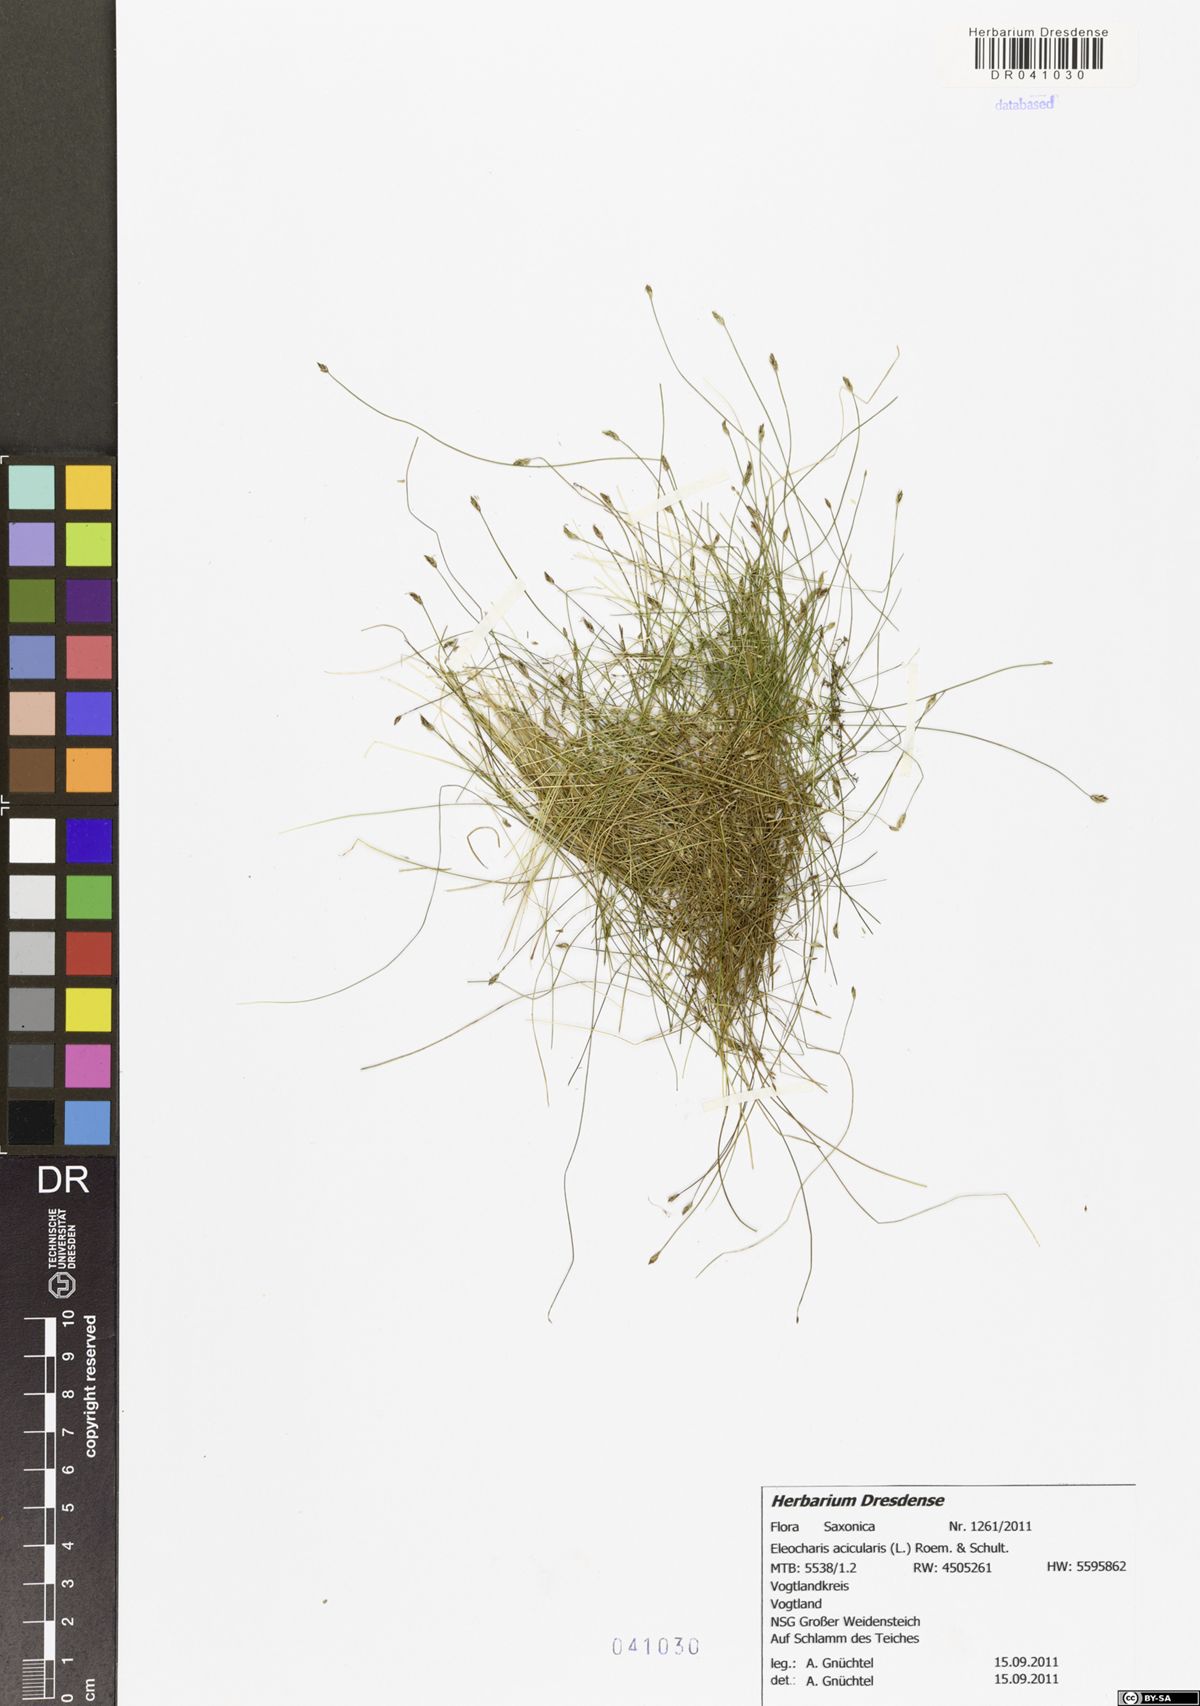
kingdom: Plantae
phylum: Tracheophyta
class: Liliopsida
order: Poales
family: Cyperaceae
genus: Eleocharis
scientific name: Eleocharis acicularis
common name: Needle spike-rush
